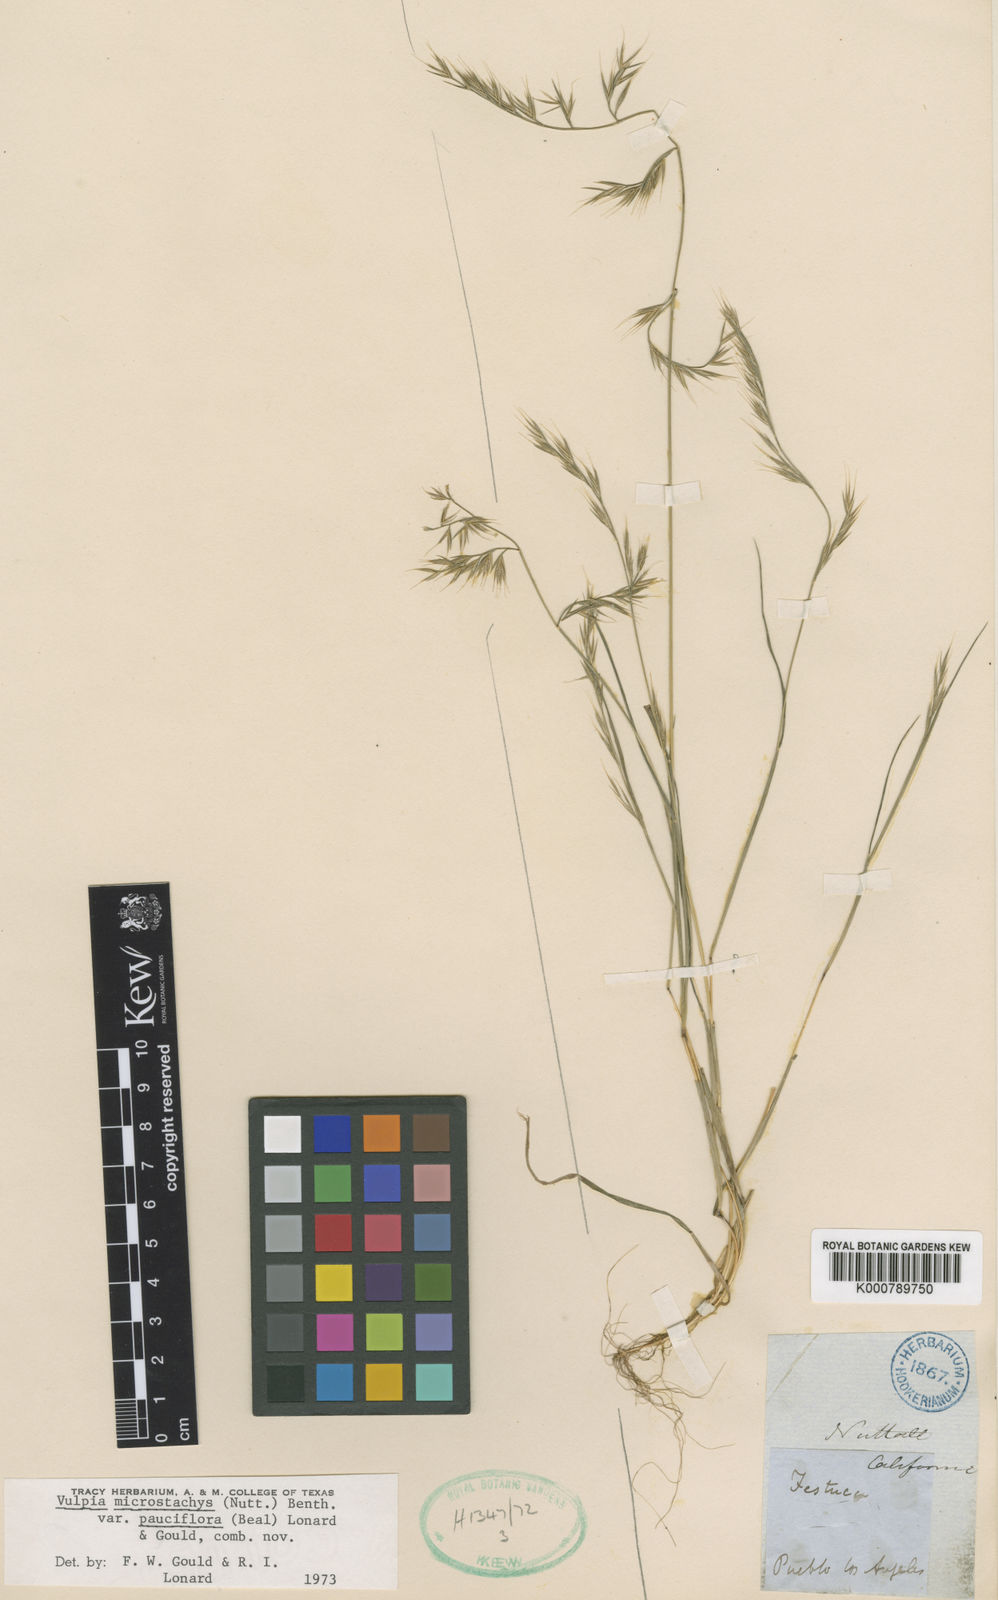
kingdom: Plantae
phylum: Tracheophyta
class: Liliopsida
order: Poales
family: Poaceae
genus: Festuca
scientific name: Festuca microstachys
